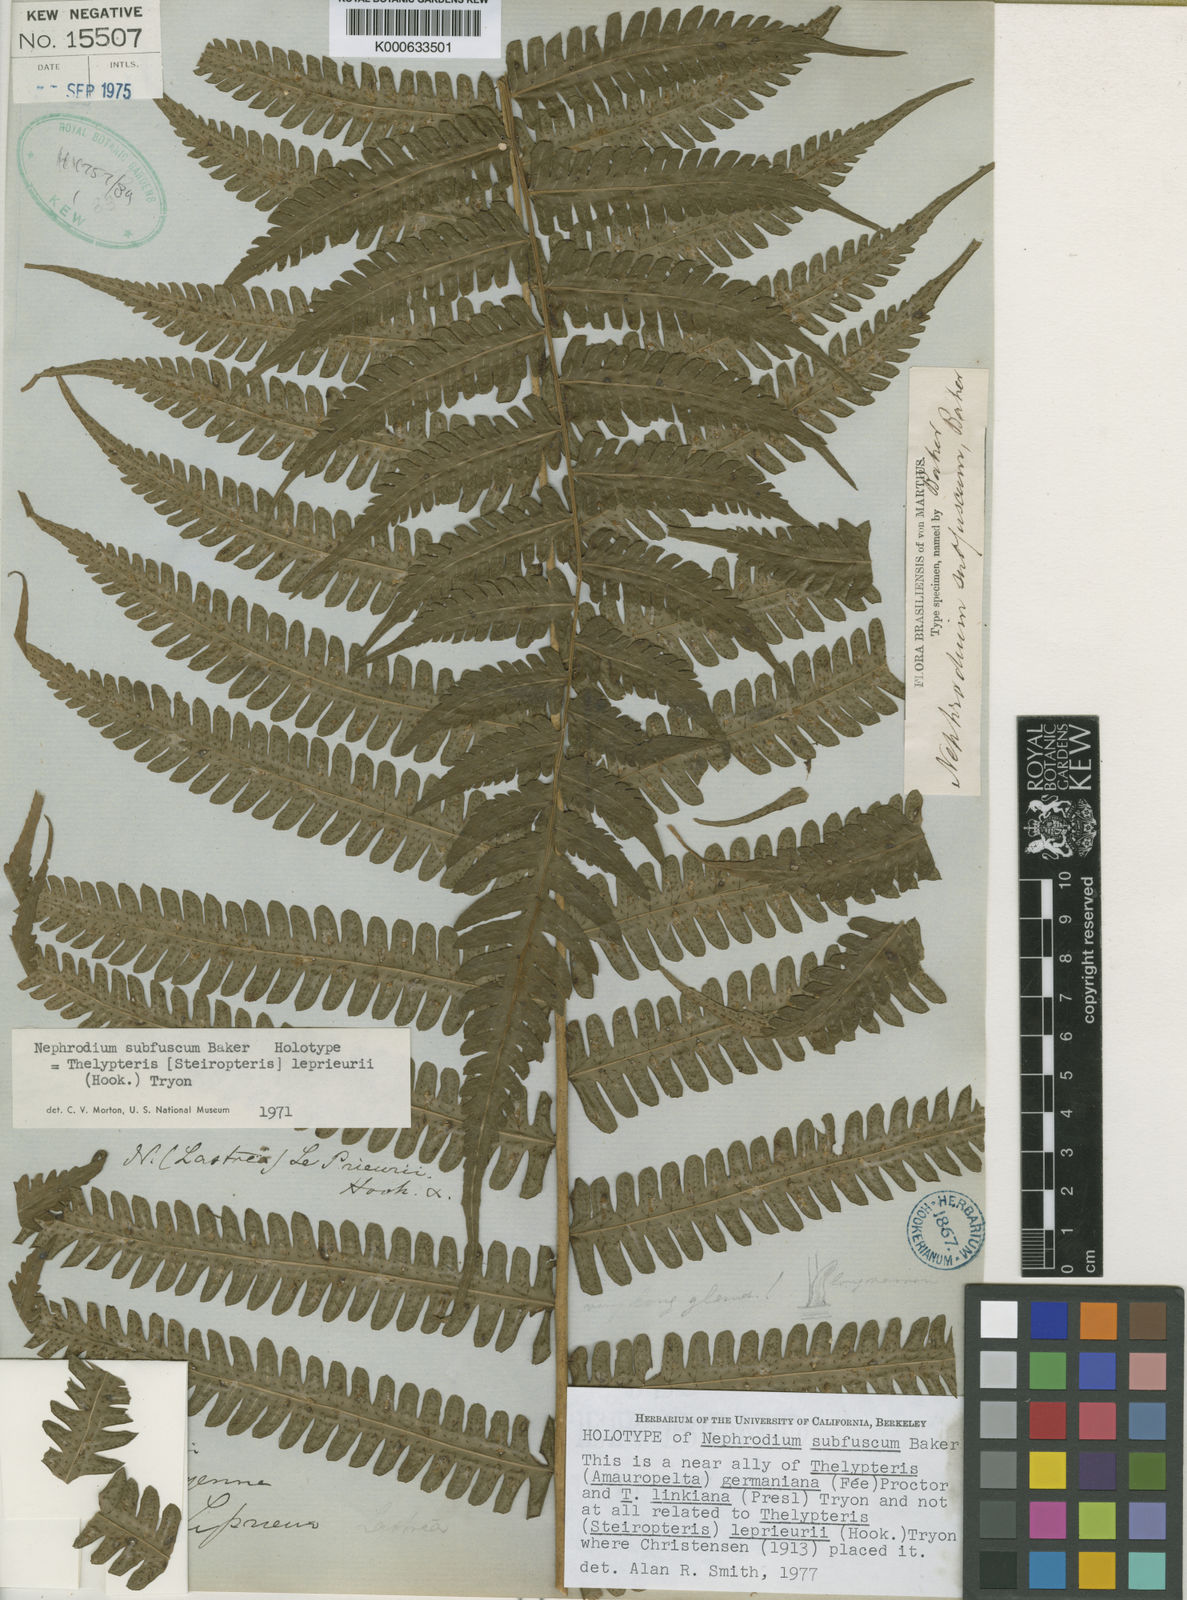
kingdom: Plantae
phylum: Tracheophyta
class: Polypodiopsida
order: Polypodiales
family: Thelypteridaceae
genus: Amauropelta
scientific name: Amauropelta
